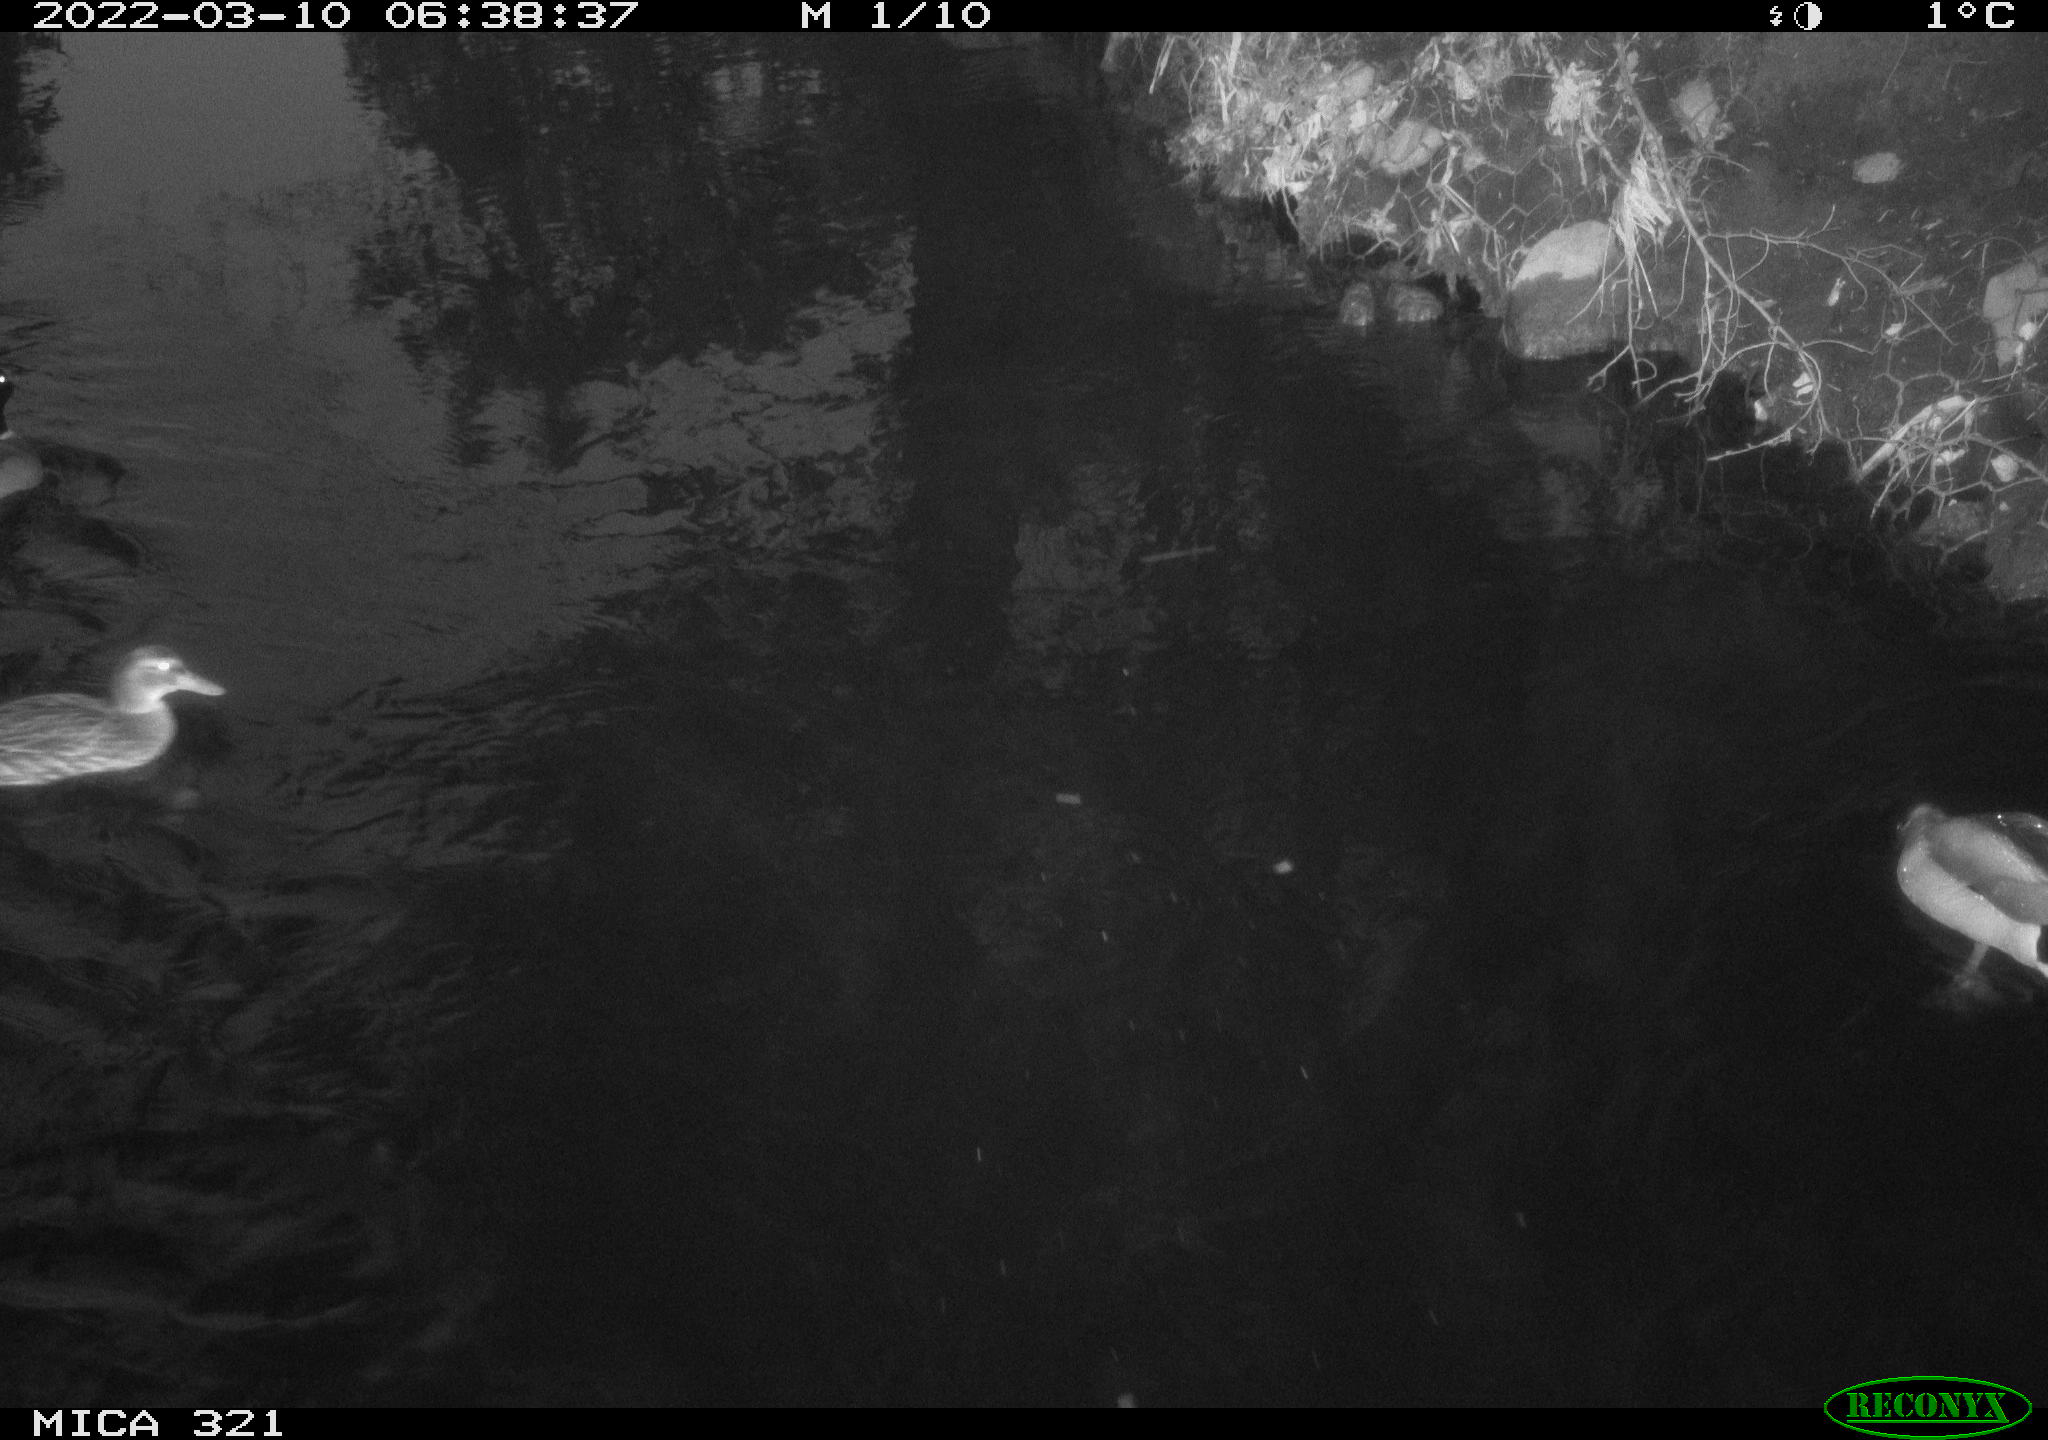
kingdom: Animalia
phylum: Chordata
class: Aves
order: Anseriformes
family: Anatidae
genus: Anas
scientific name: Anas platyrhynchos
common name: Mallard
